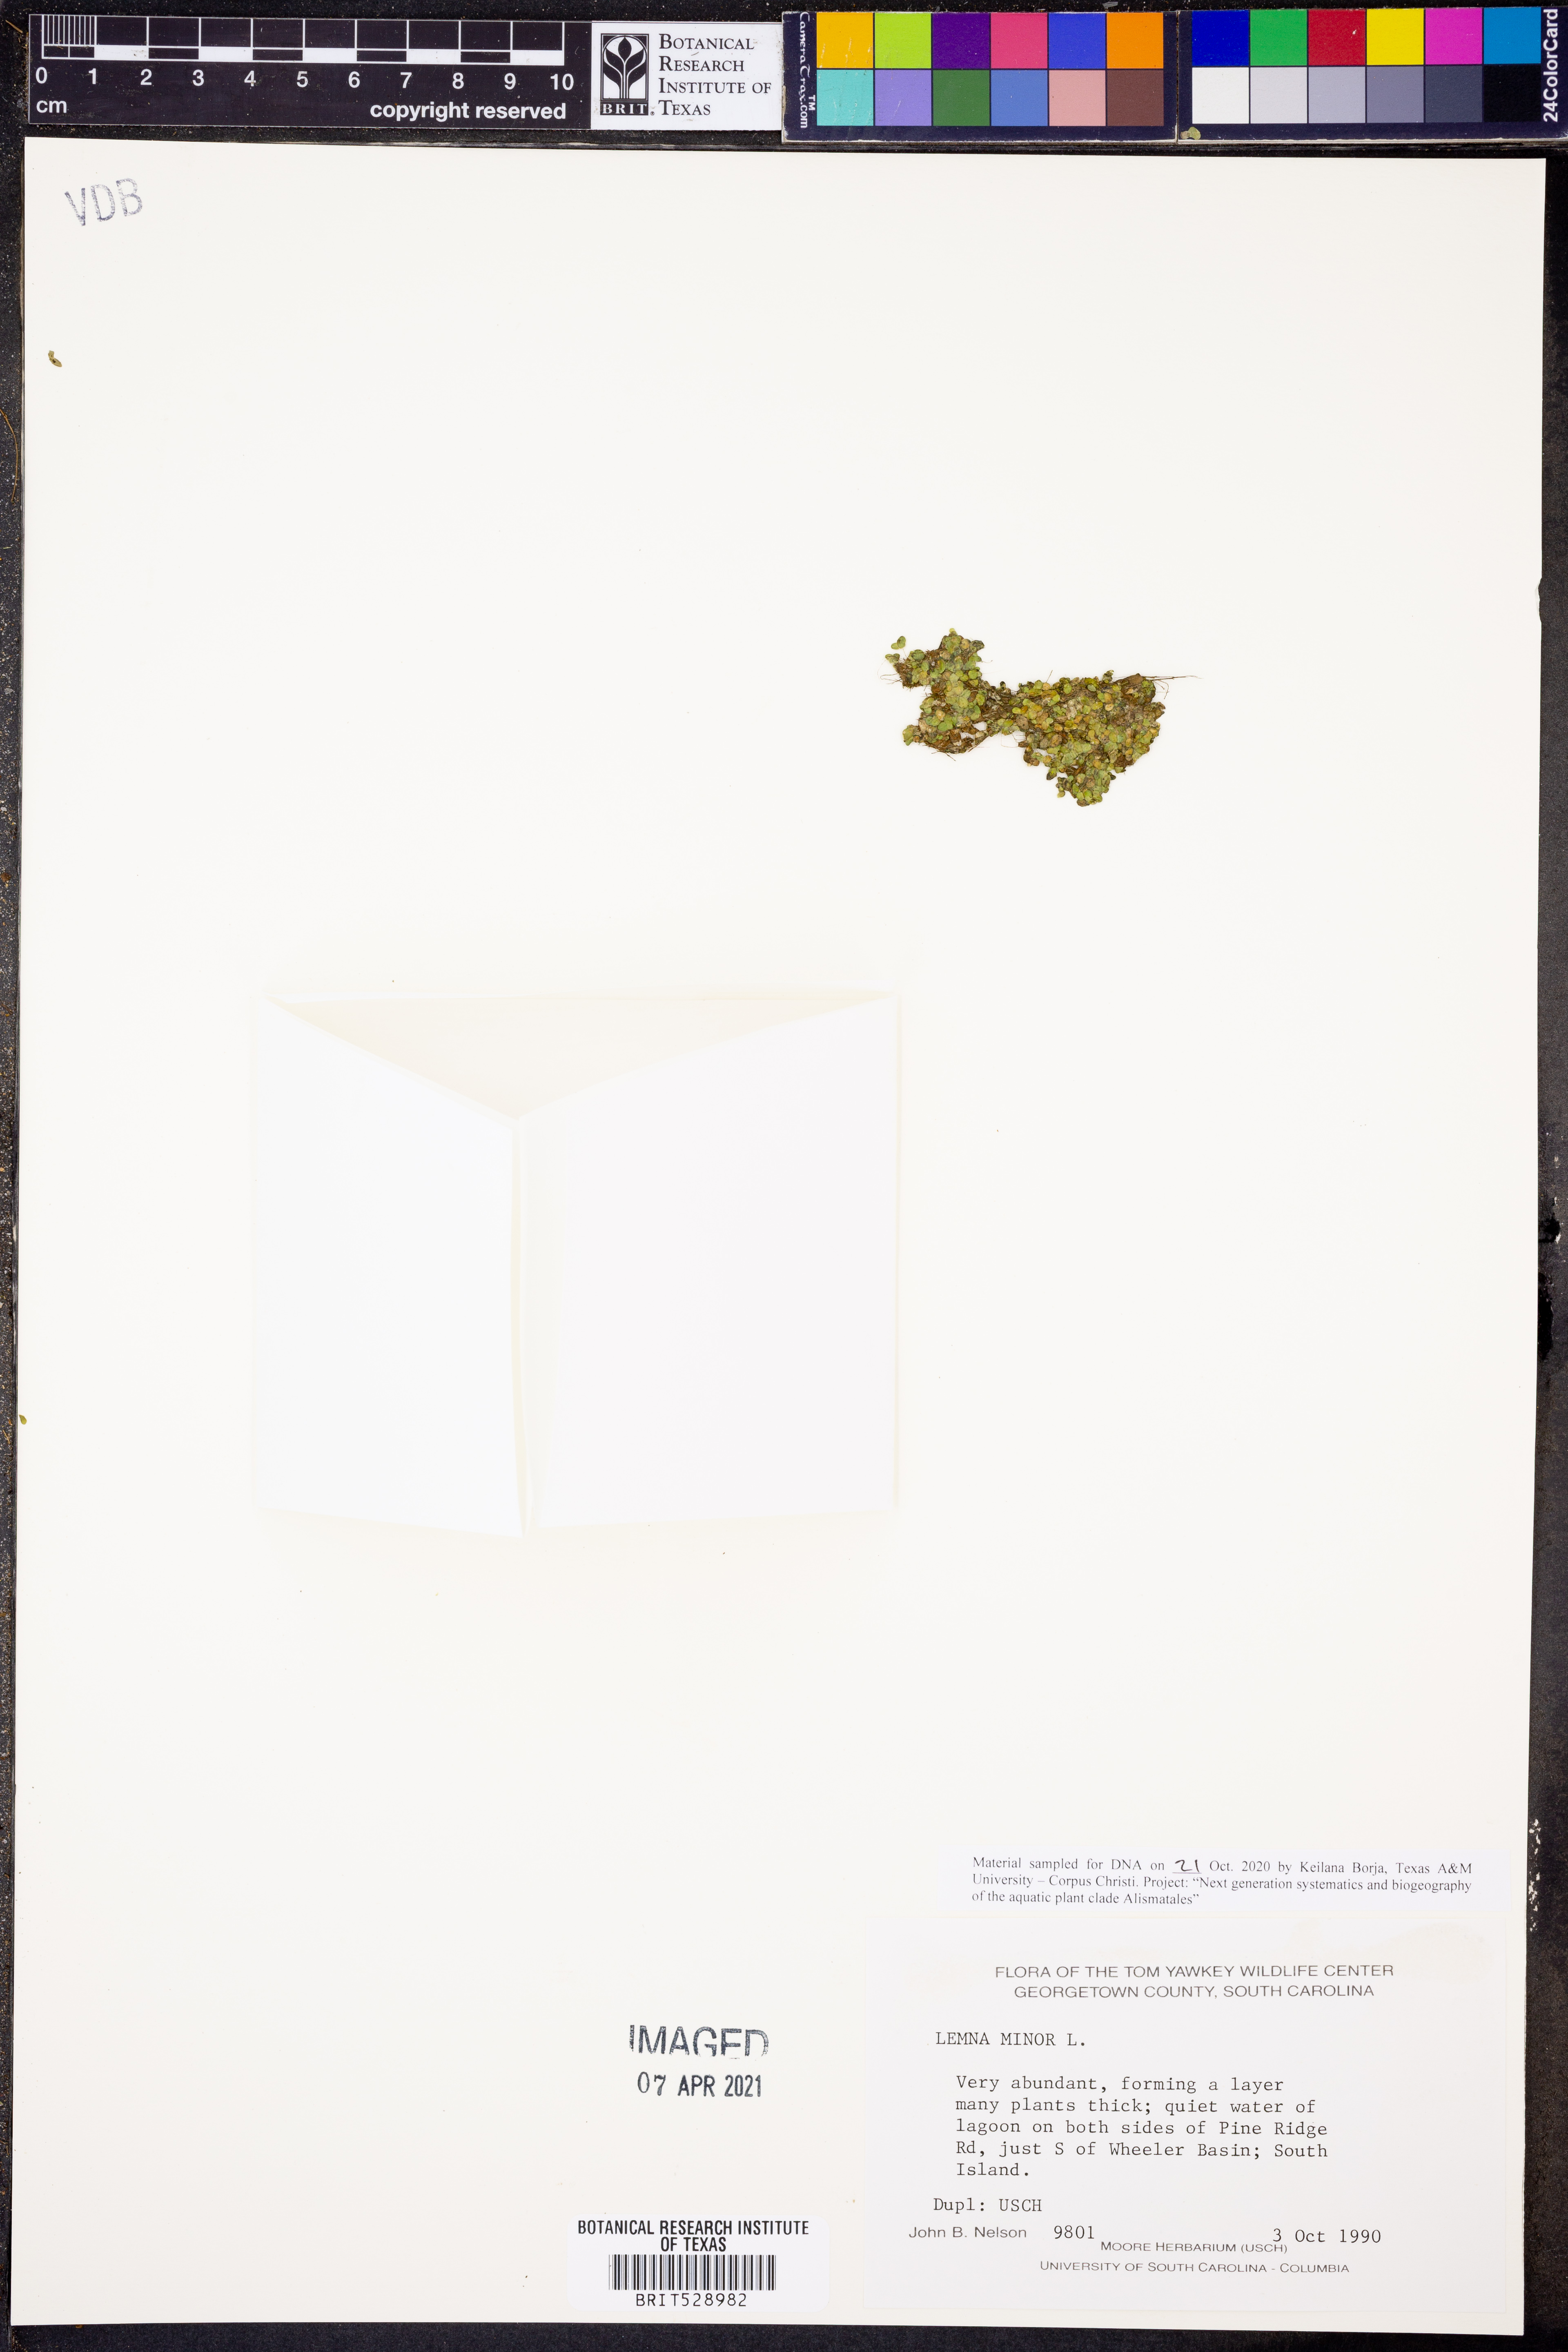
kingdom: Plantae
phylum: Tracheophyta
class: Liliopsida
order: Alismatales
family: Araceae
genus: Lemna
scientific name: Lemna minor
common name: Common duckweed
